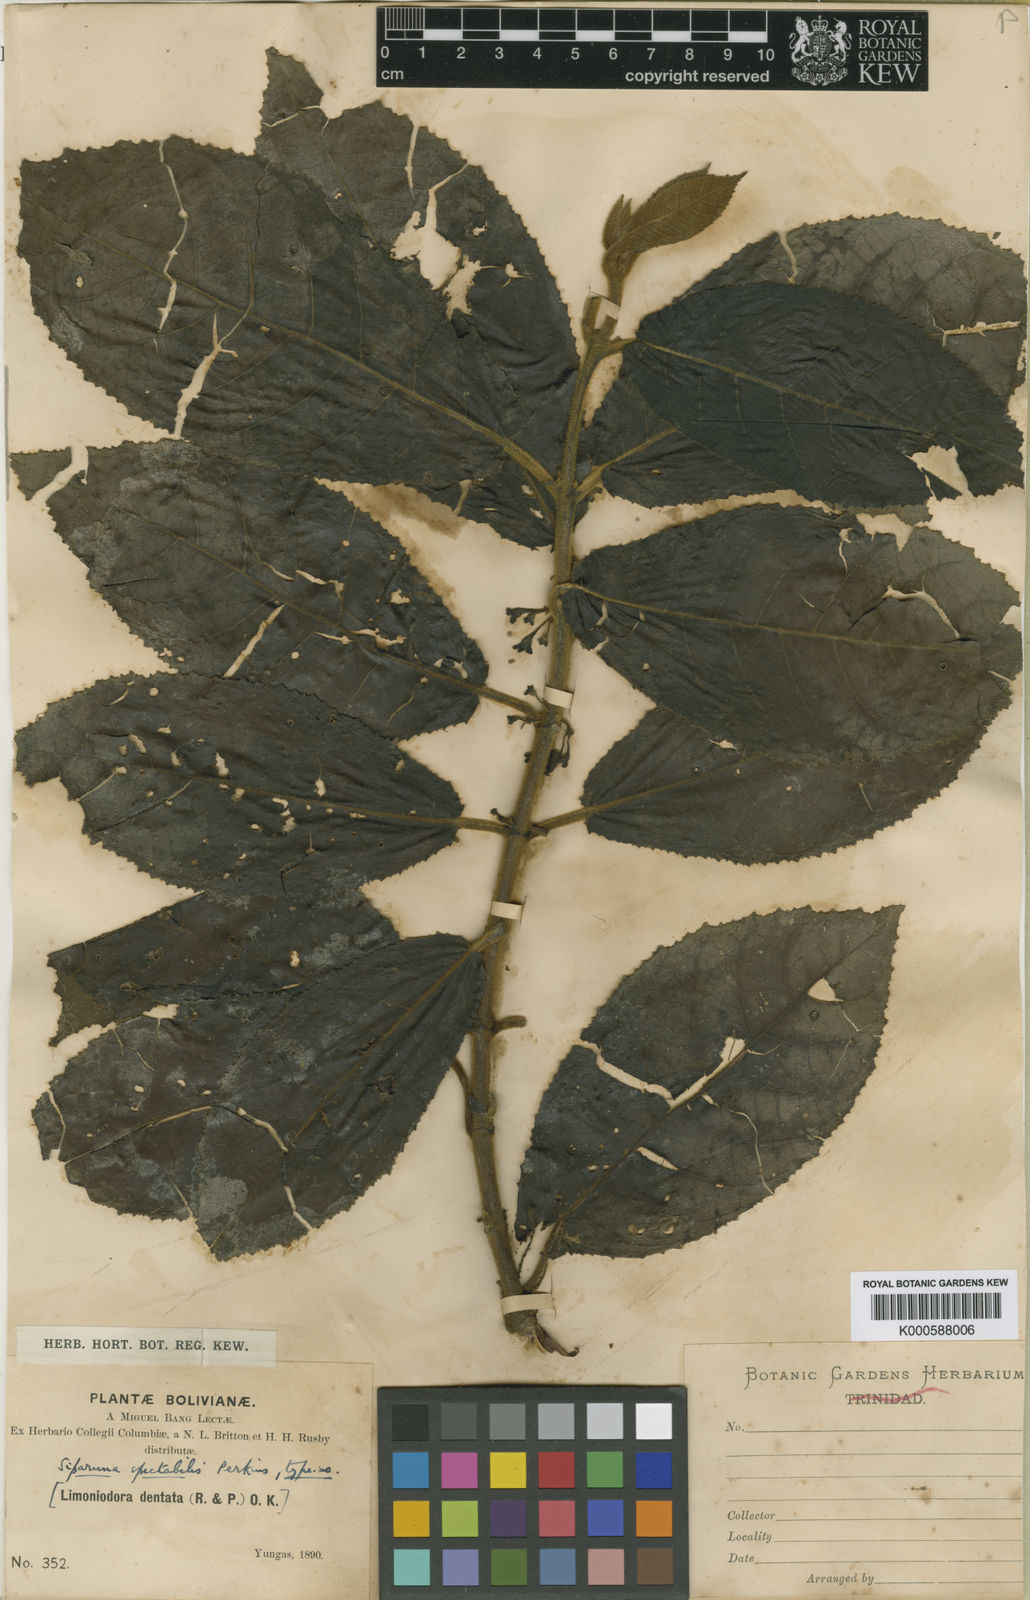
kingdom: Plantae
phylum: Tracheophyta
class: Magnoliopsida
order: Laurales
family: Siparunaceae
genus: Siparuna
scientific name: Siparuna aspera
